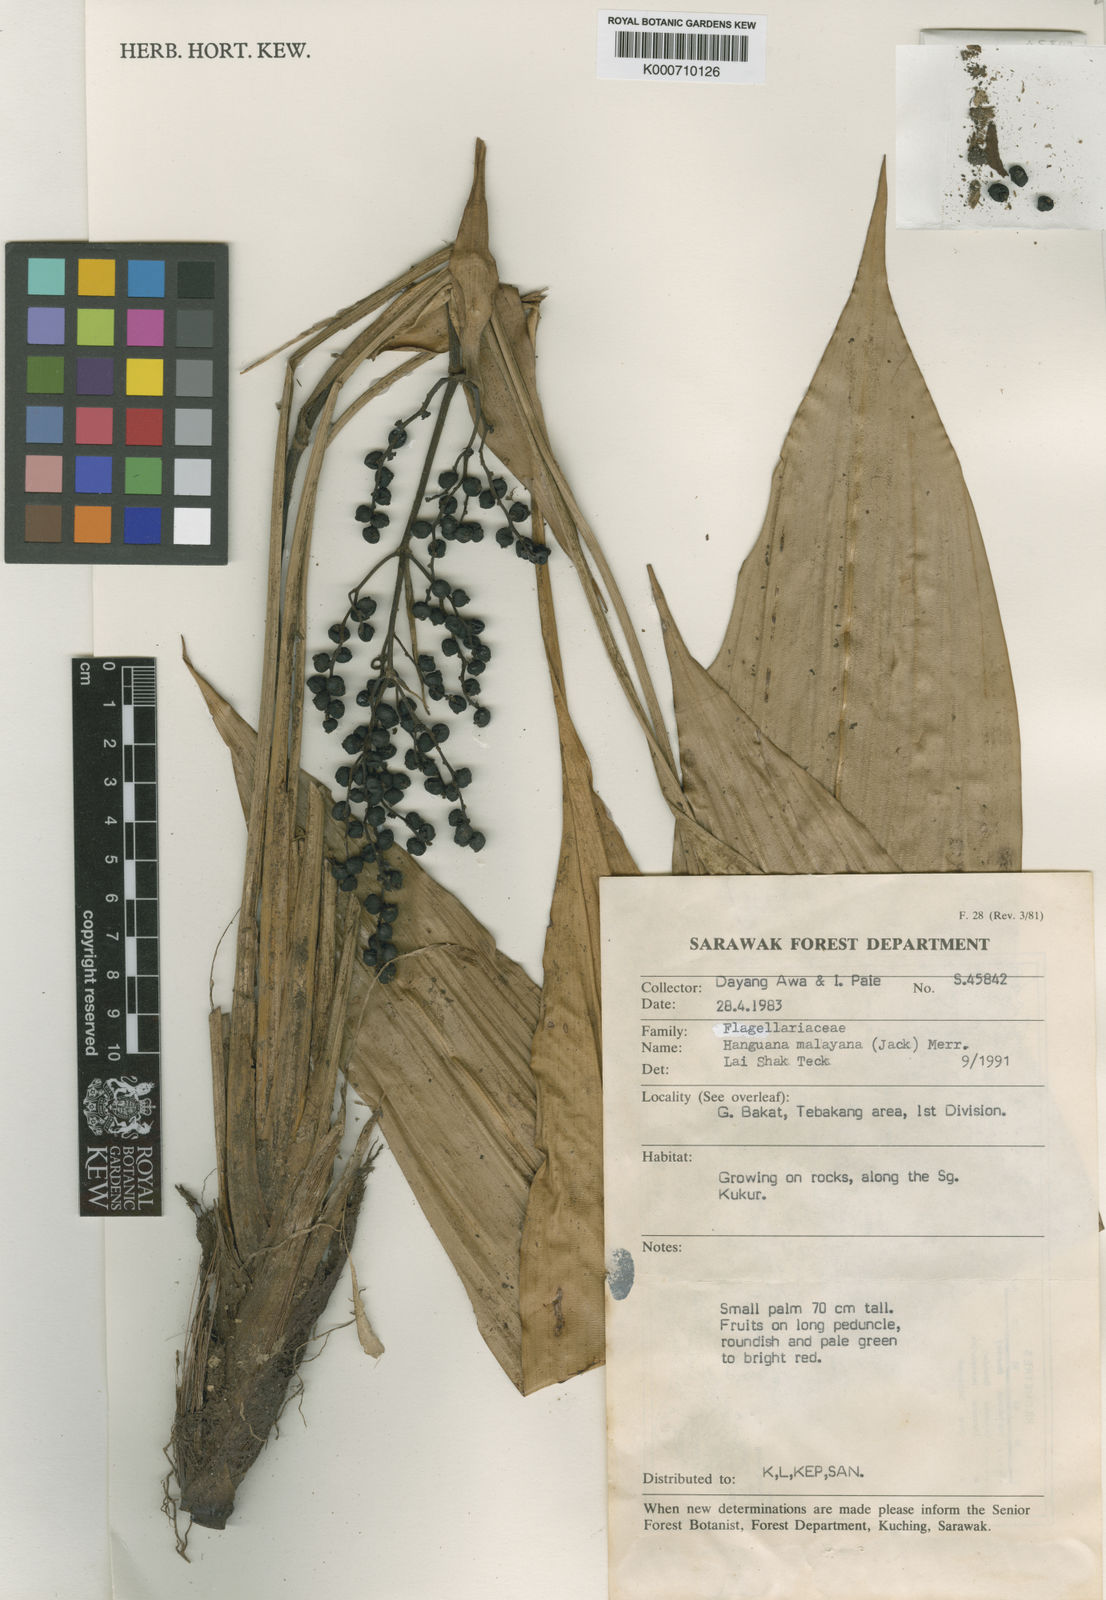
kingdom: Plantae
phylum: Tracheophyta
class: Liliopsida
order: Commelinales
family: Hanguanaceae
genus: Hanguana
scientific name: Hanguana malayana
